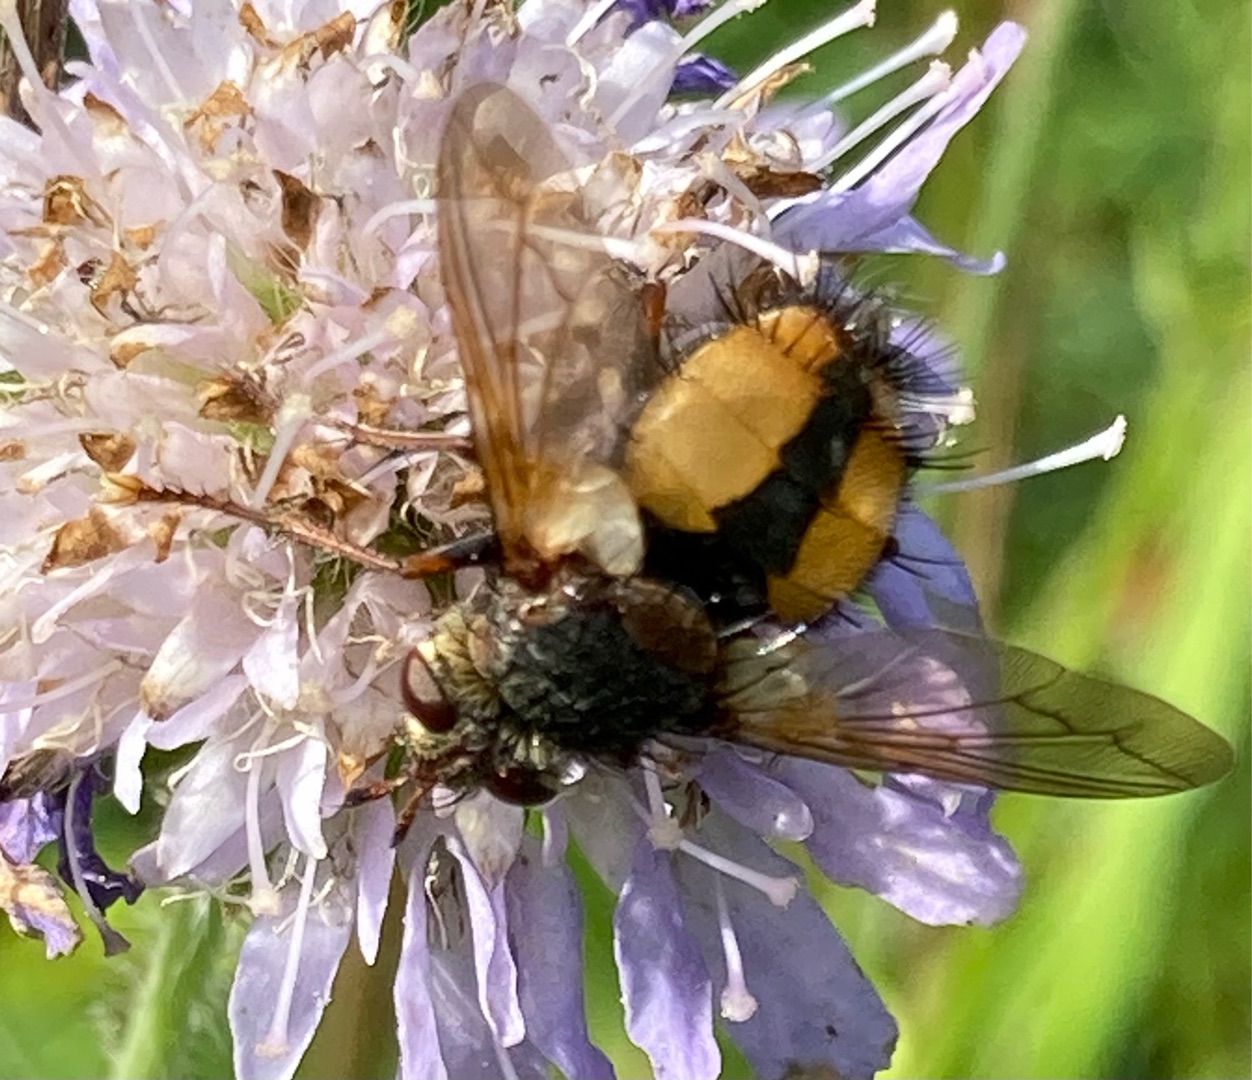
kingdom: Animalia
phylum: Arthropoda
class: Insecta
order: Diptera
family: Tachinidae
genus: Tachina
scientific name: Tachina fera
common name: Mellemfluen oskar
